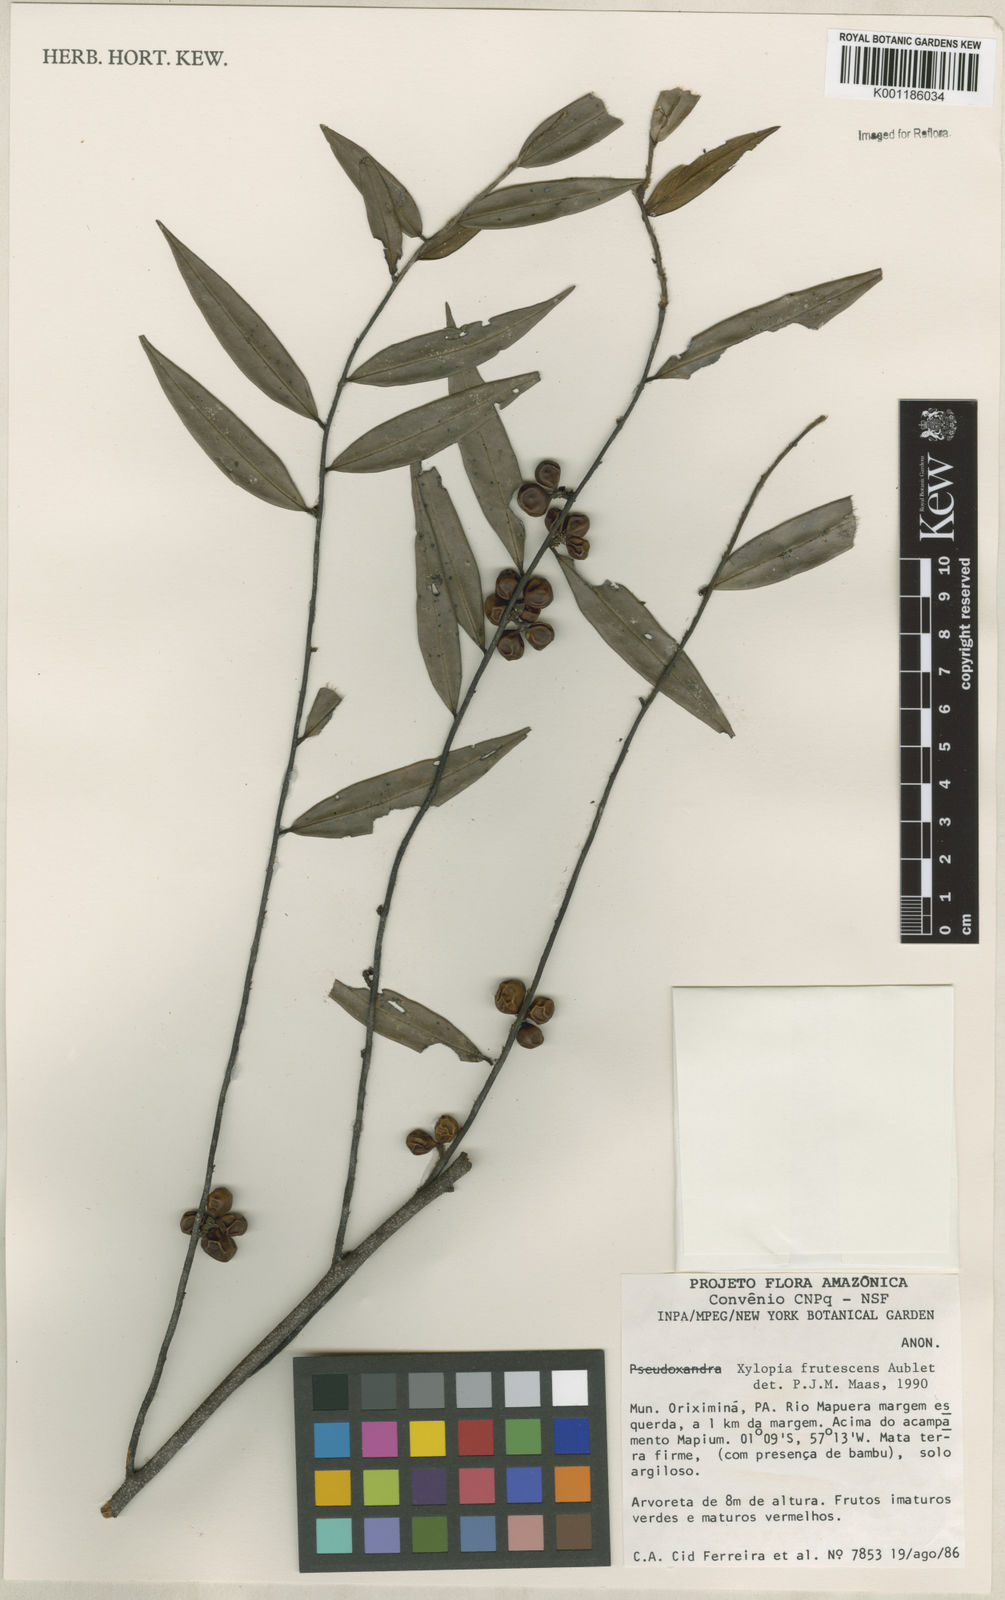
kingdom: Plantae
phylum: Tracheophyta
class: Magnoliopsida
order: Magnoliales
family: Annonaceae
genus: Xylopia
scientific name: Xylopia frutescens
